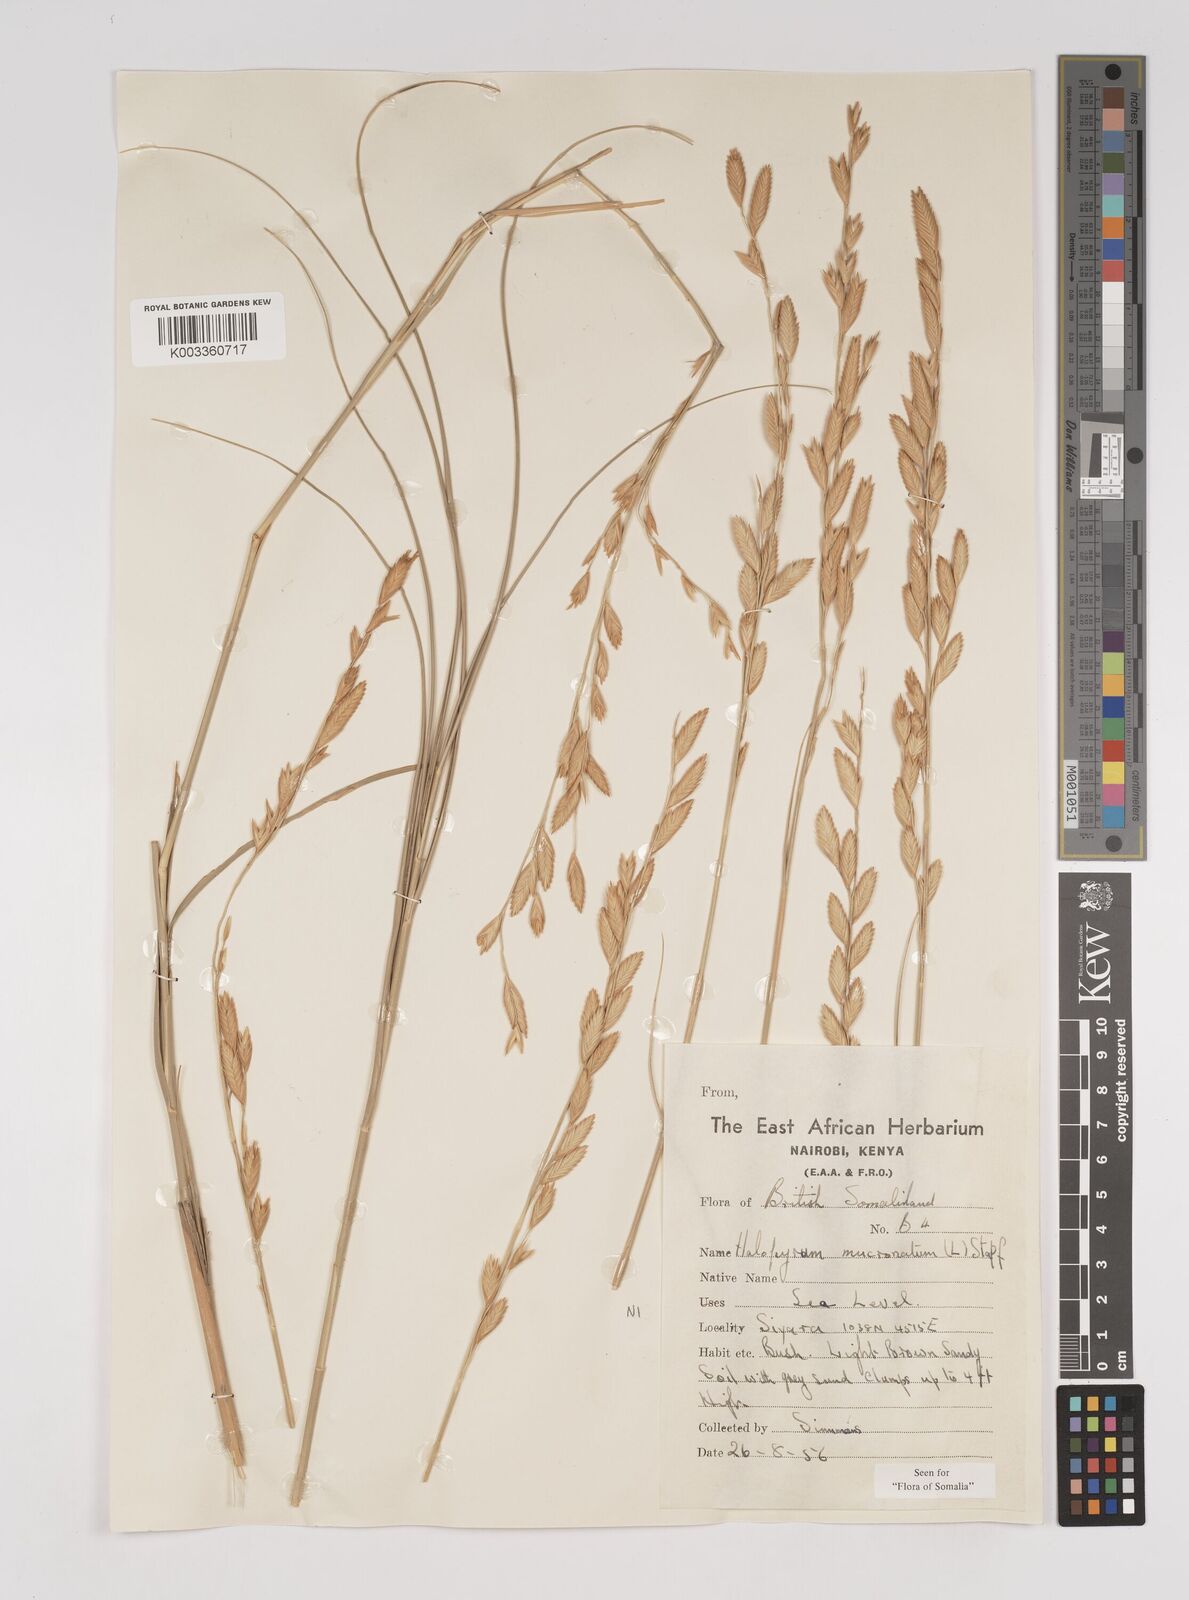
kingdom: Plantae
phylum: Tracheophyta
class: Liliopsida
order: Poales
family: Poaceae
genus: Halopyrum
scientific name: Halopyrum mucronatum
